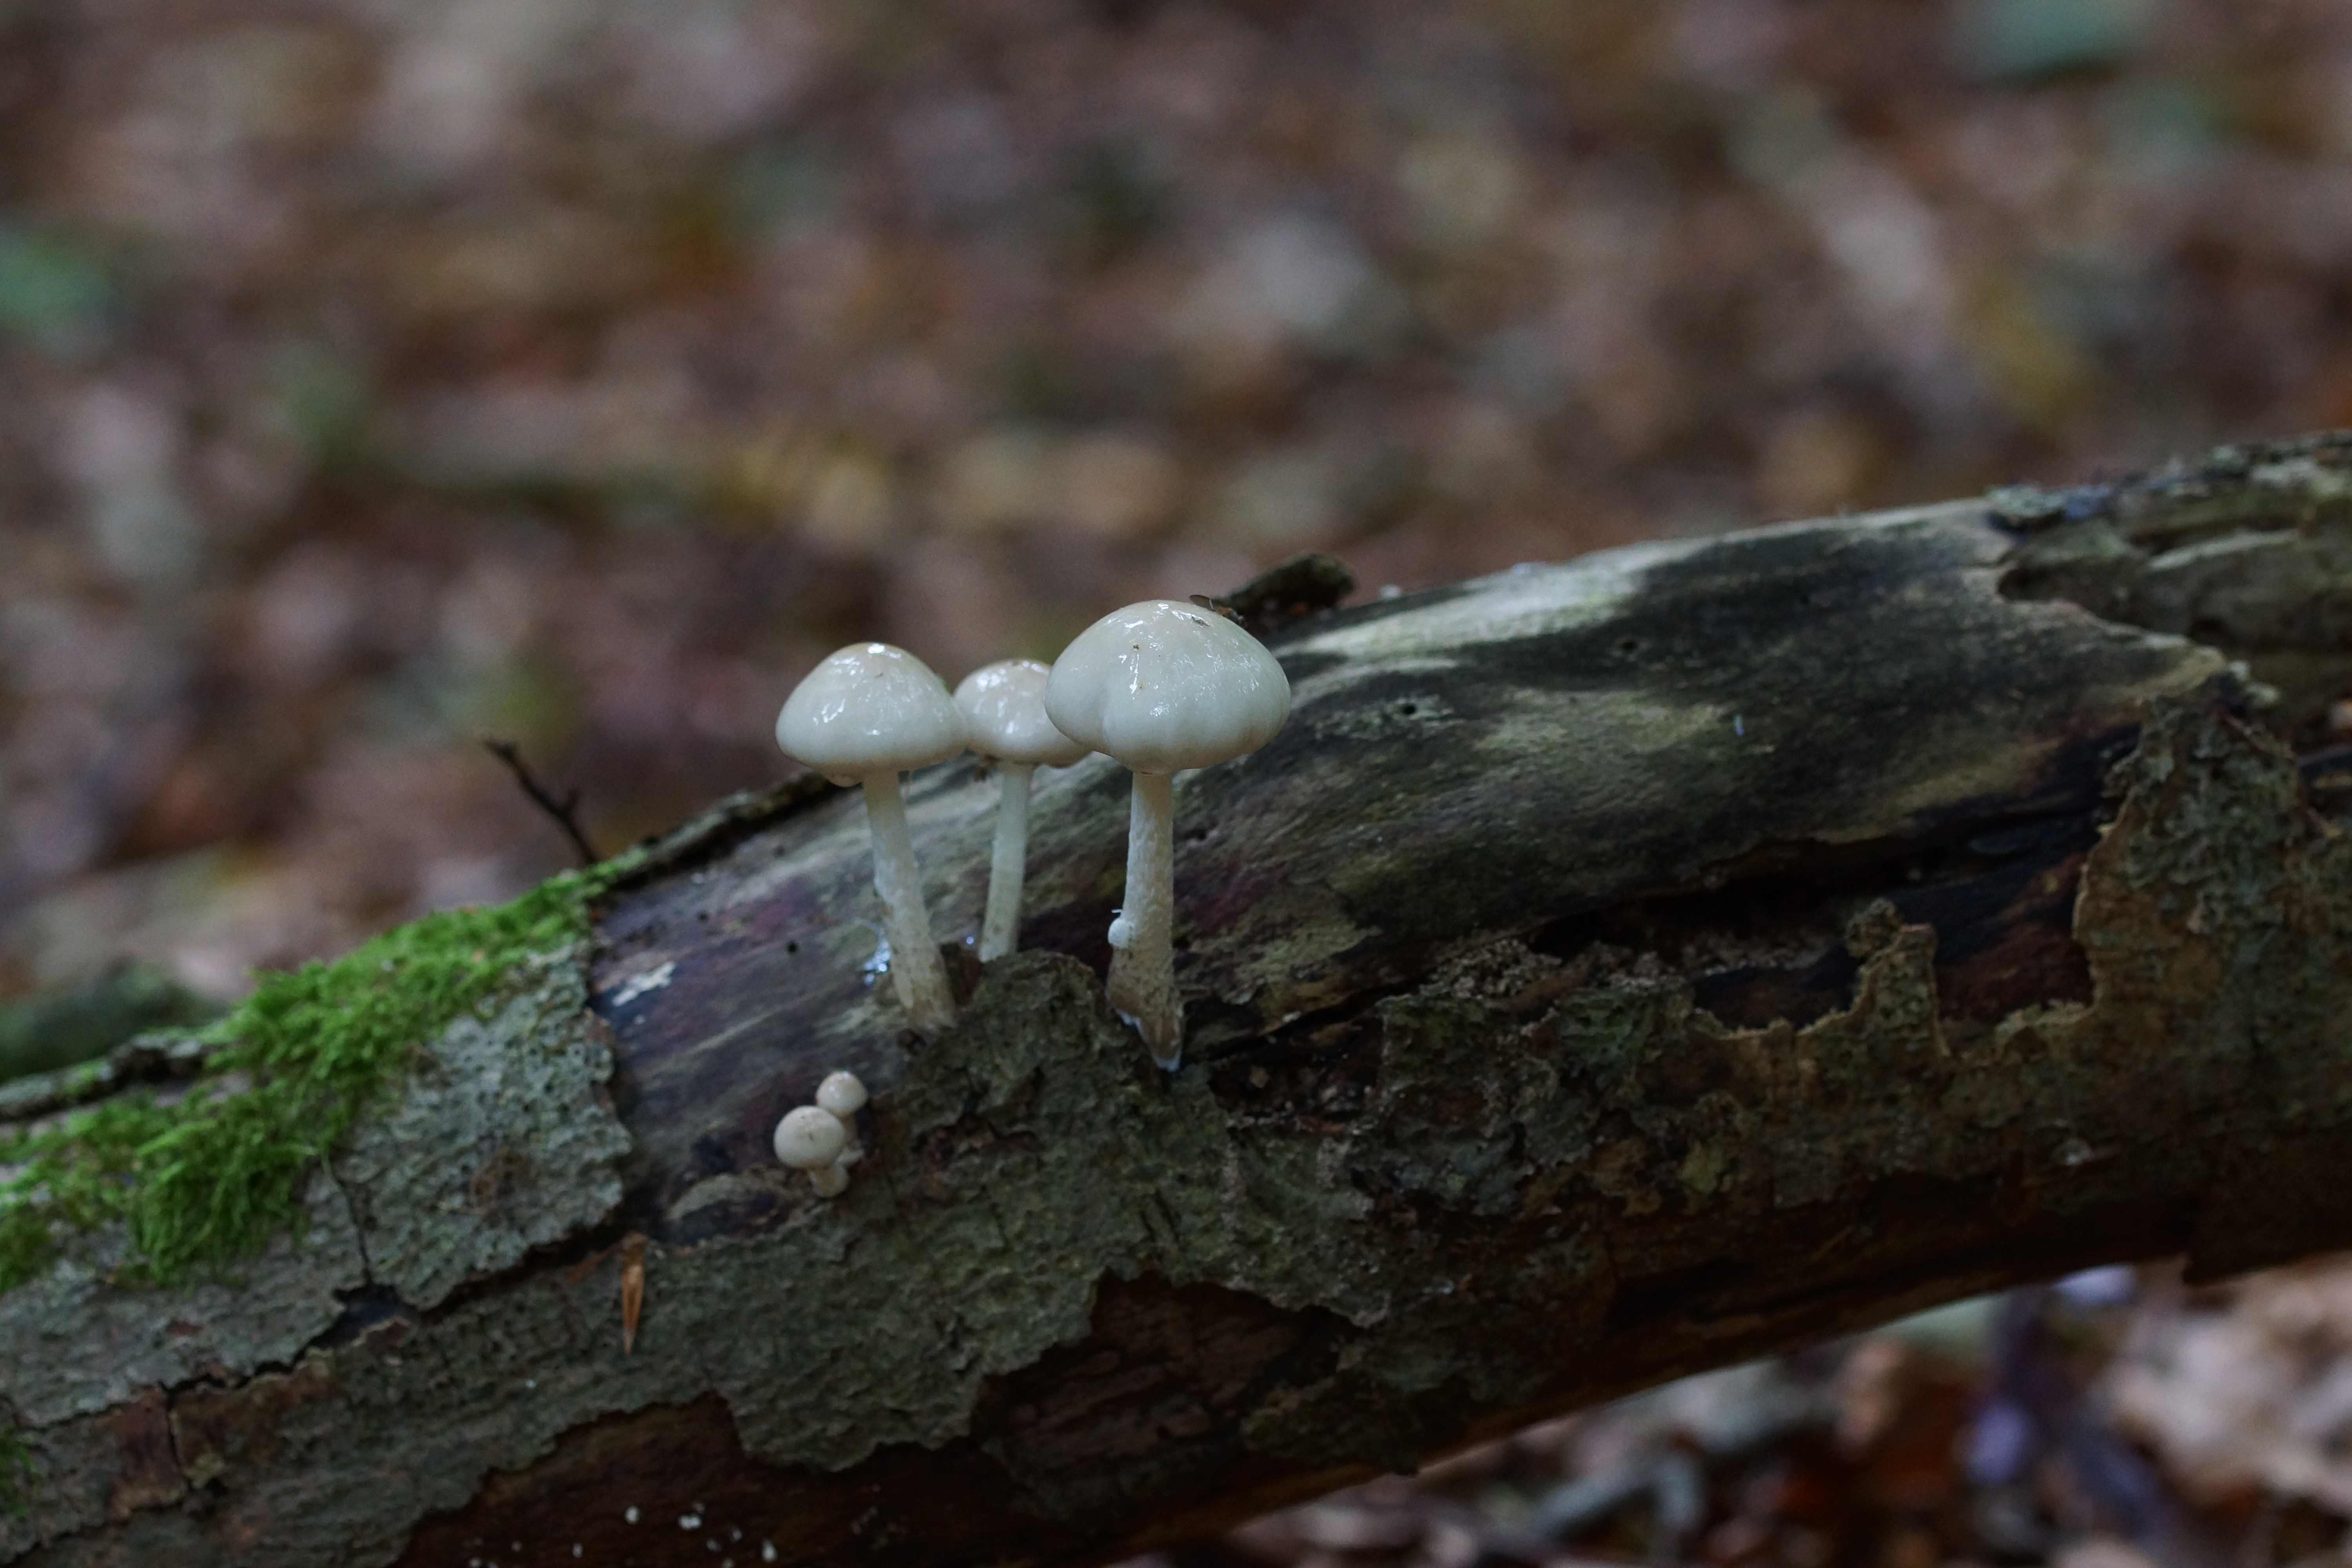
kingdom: Fungi
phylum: Basidiomycota
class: Agaricomycetes
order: Agaricales
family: Physalacriaceae
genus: Mucidula
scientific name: Mucidula mucida
